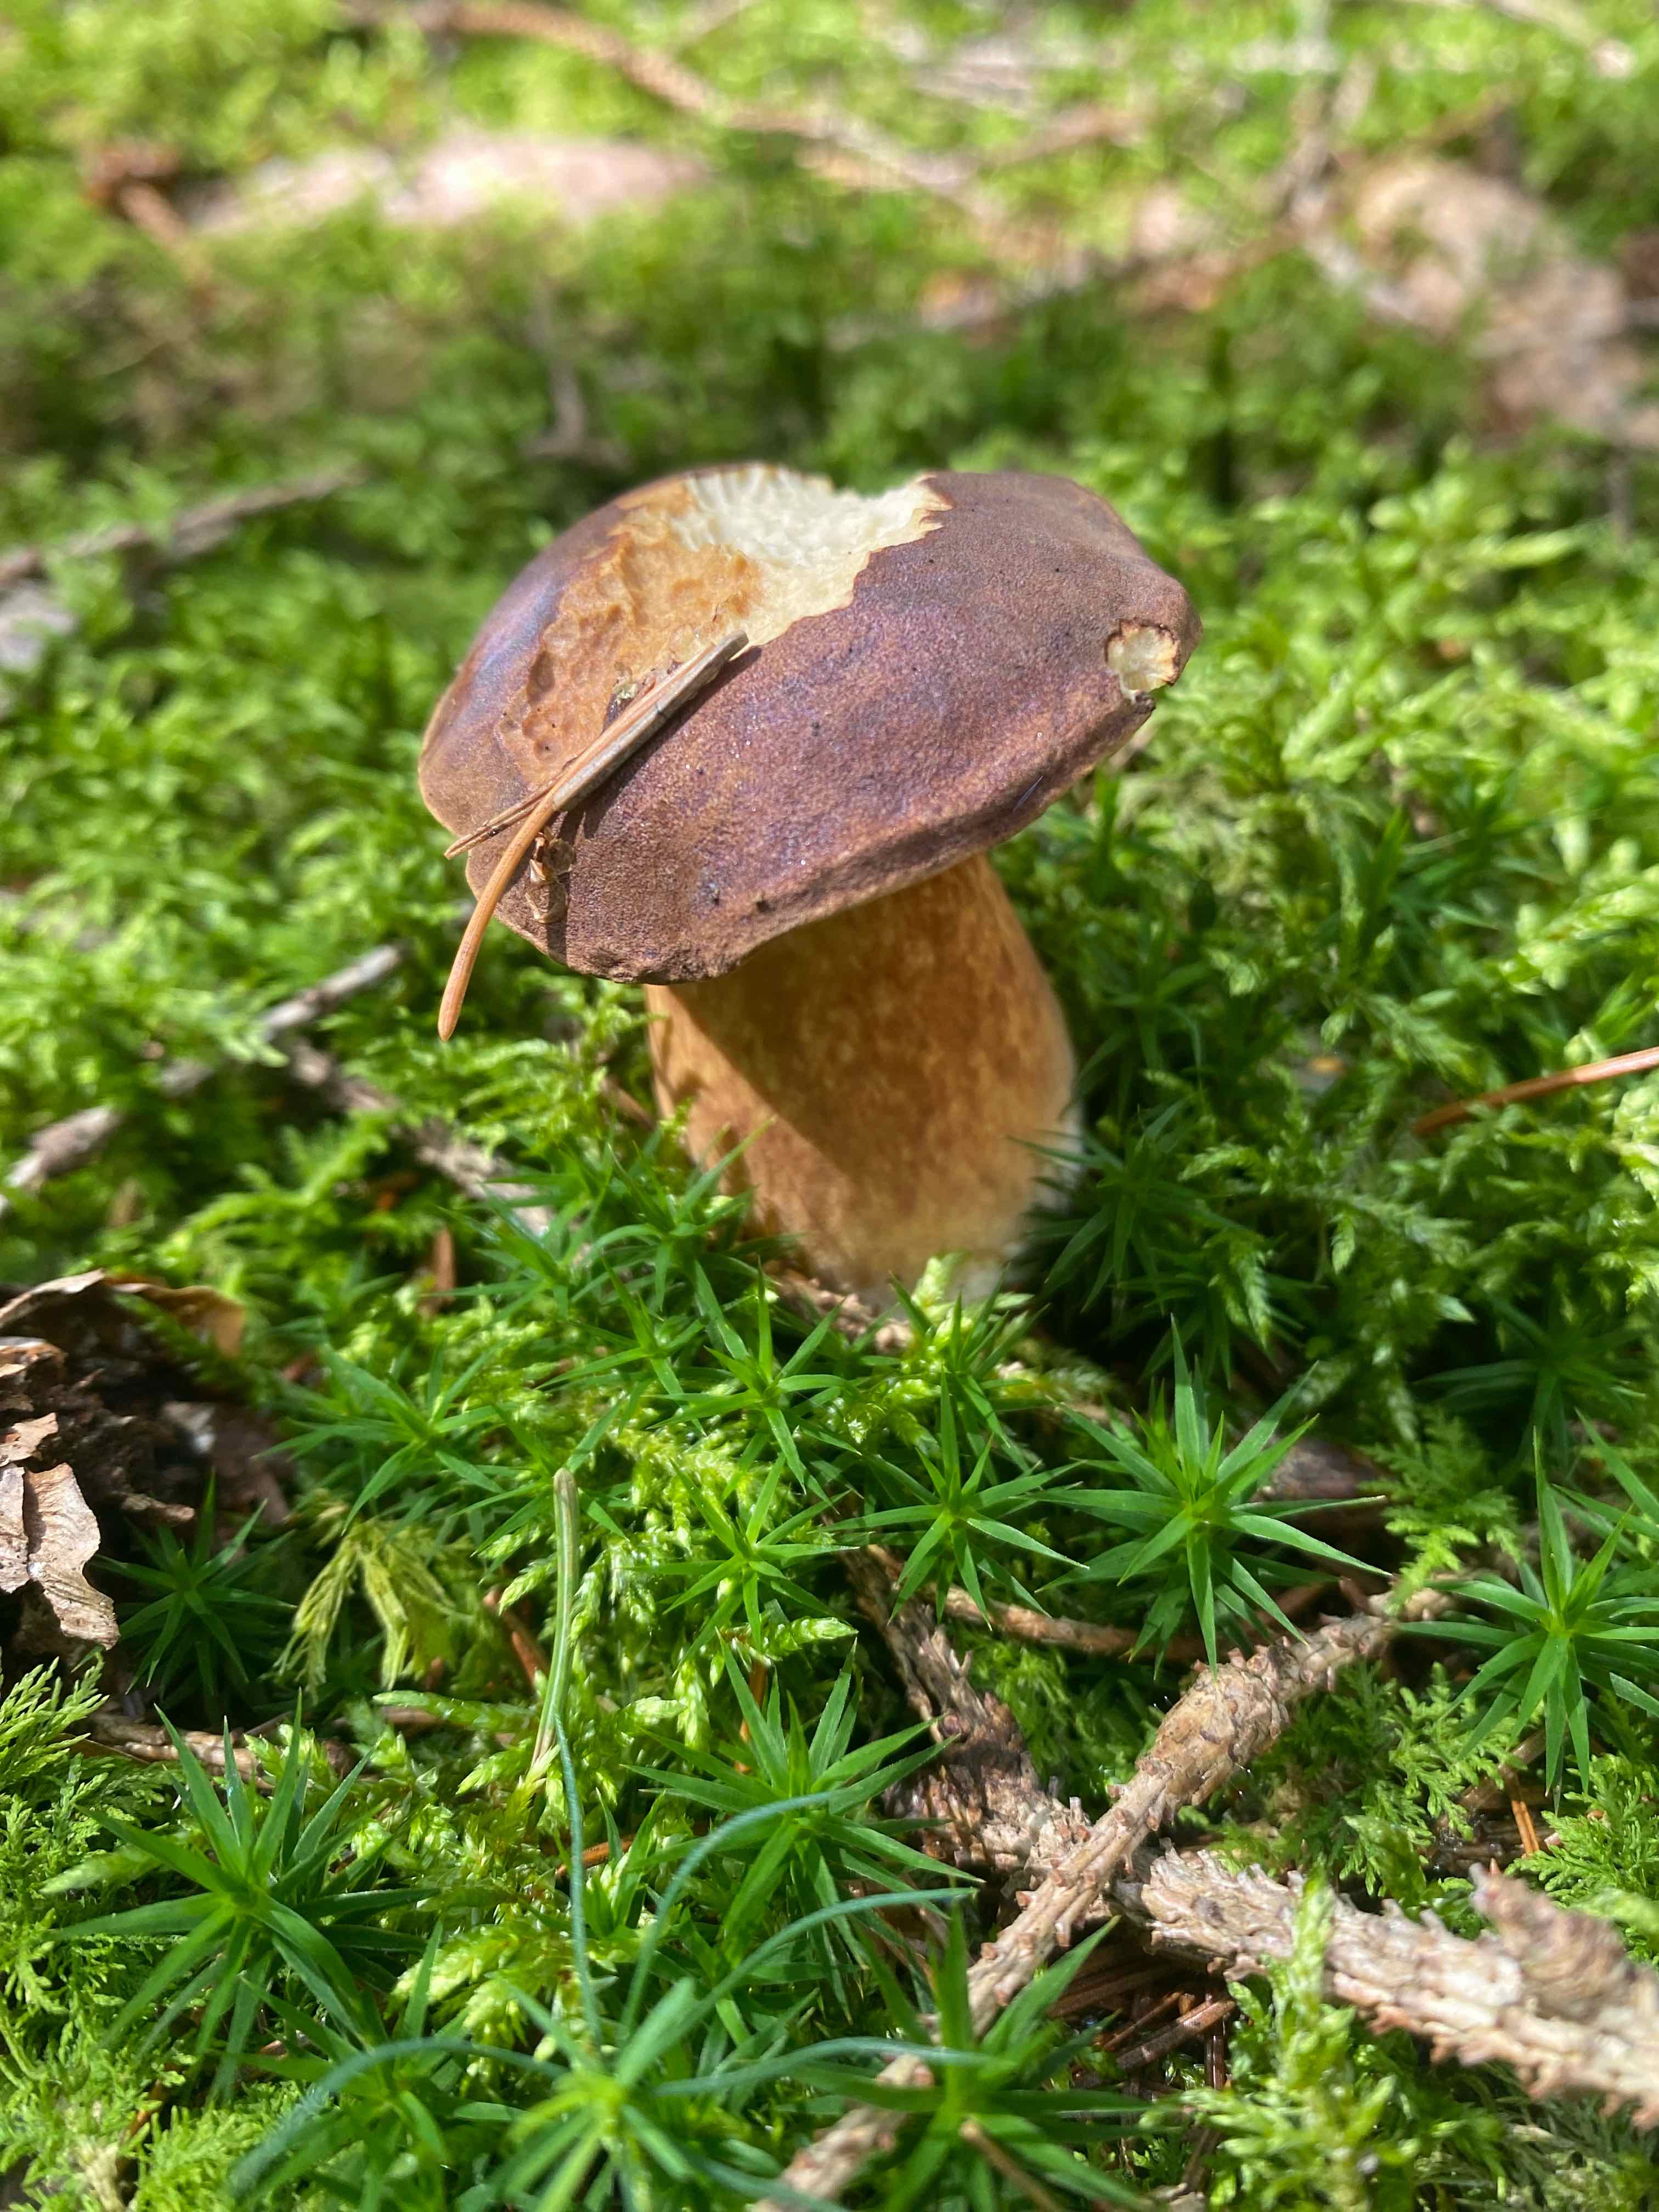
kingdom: Fungi
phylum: Basidiomycota
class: Agaricomycetes
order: Boletales
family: Boletaceae
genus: Imleria
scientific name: Imleria badia
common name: brunstokket rørhat
